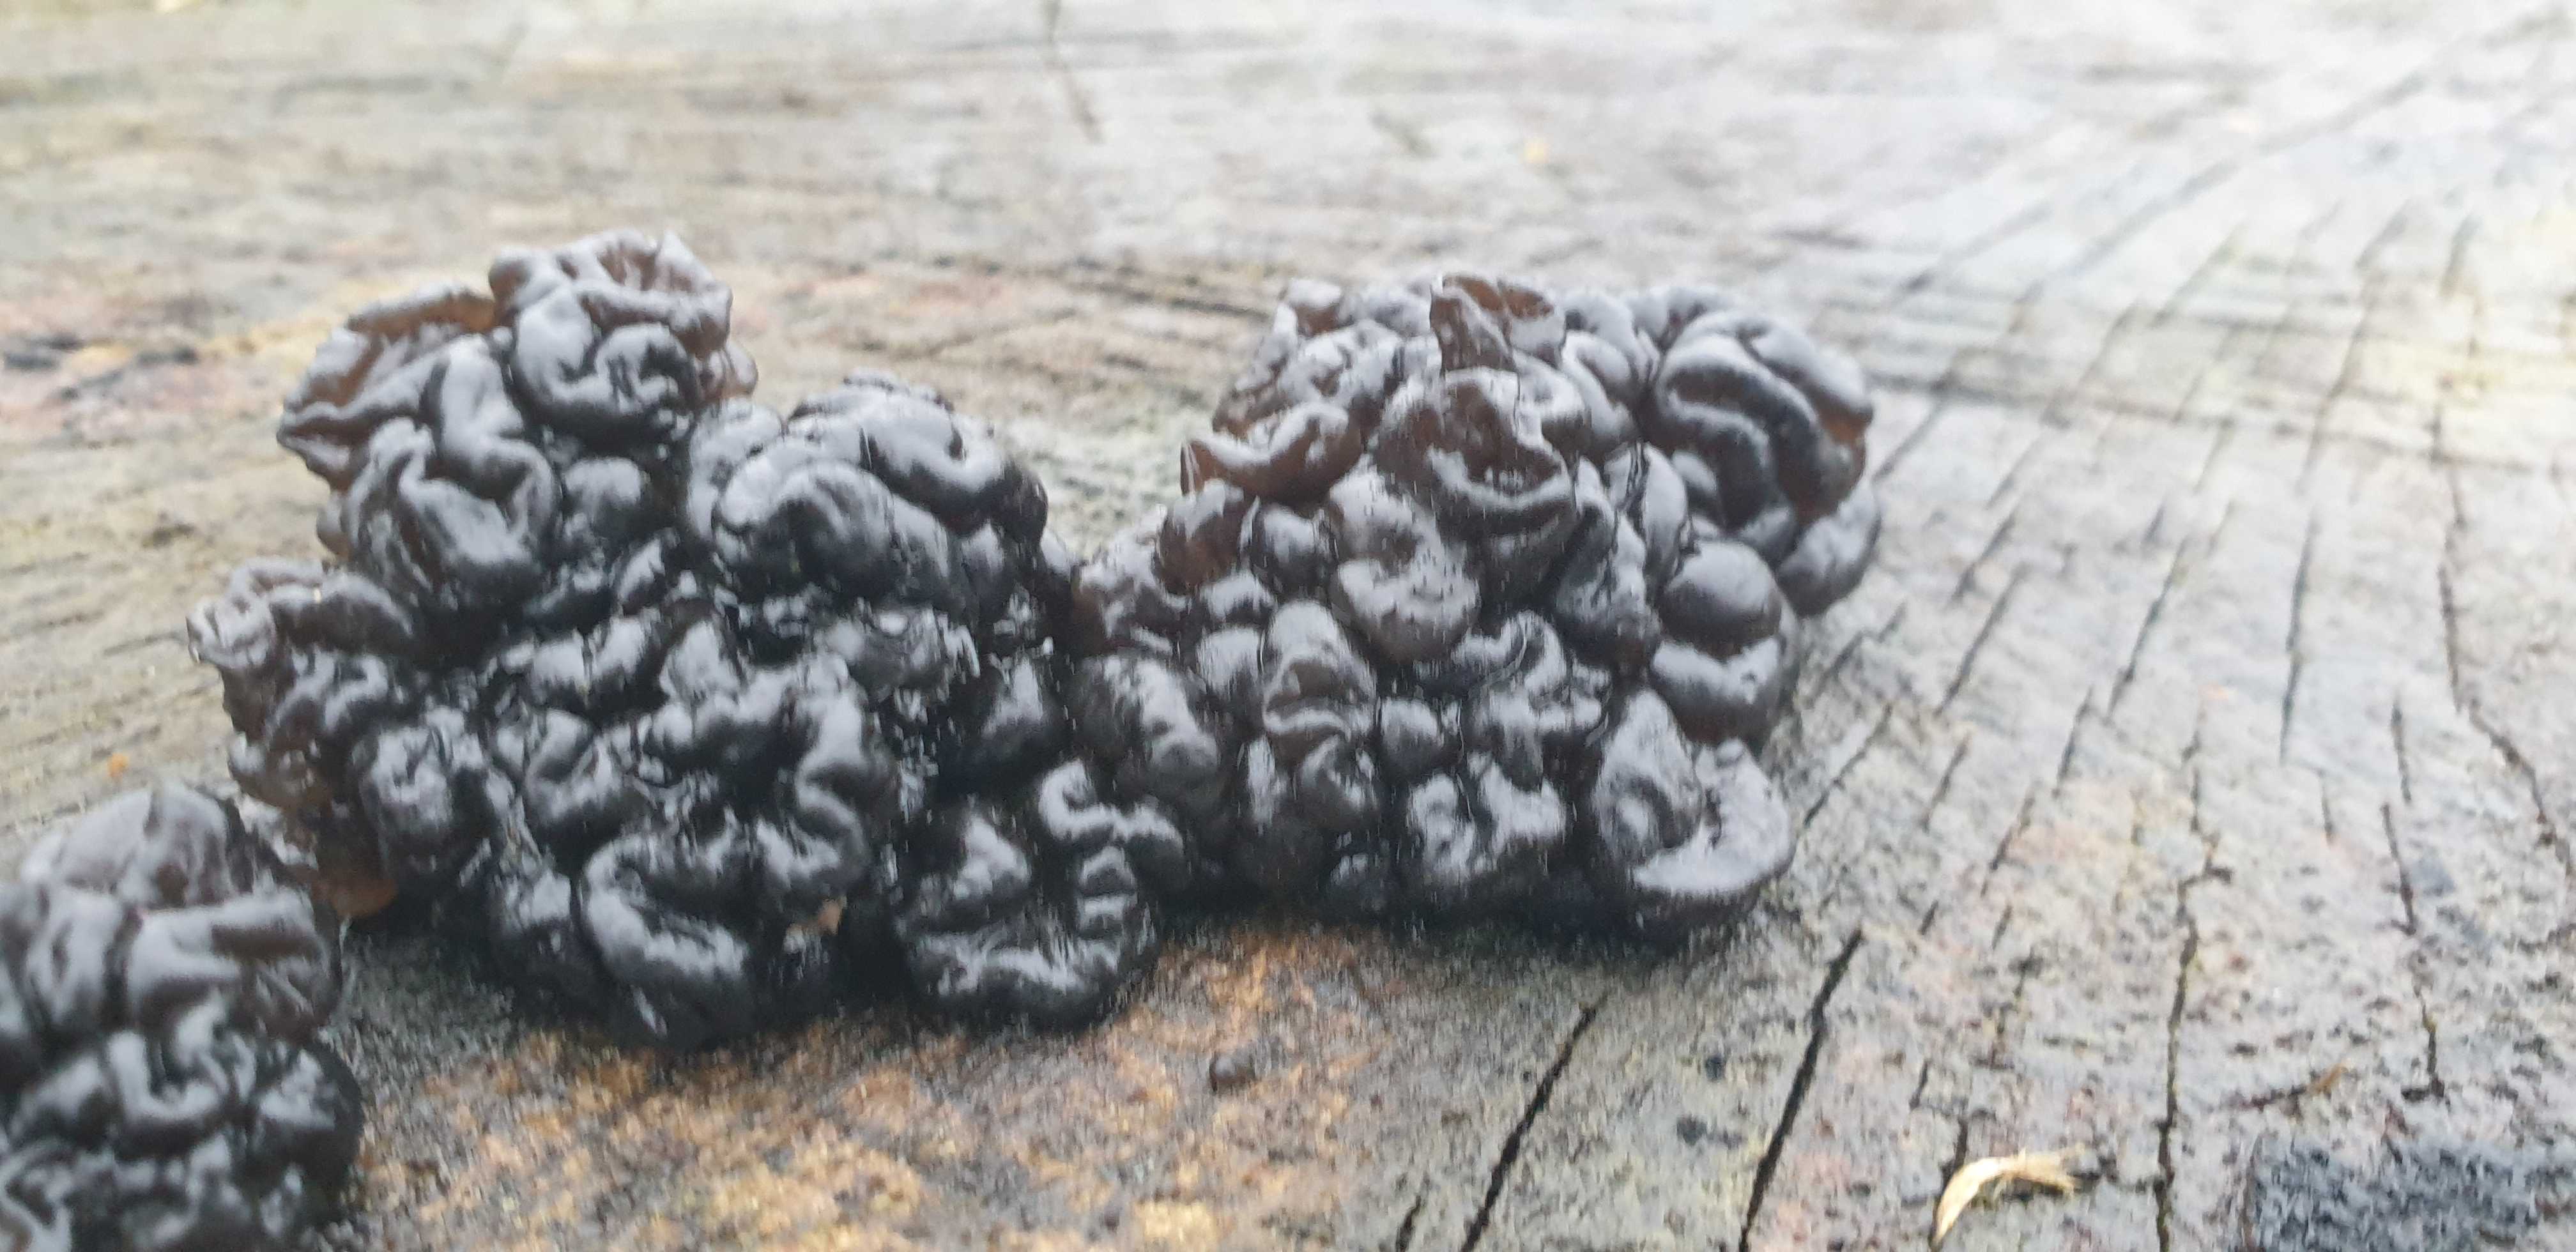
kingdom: Fungi
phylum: Basidiomycota
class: Agaricomycetes
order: Auriculariales
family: Auriculariaceae
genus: Exidia
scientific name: Exidia nigricans
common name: almindelig bævretop
